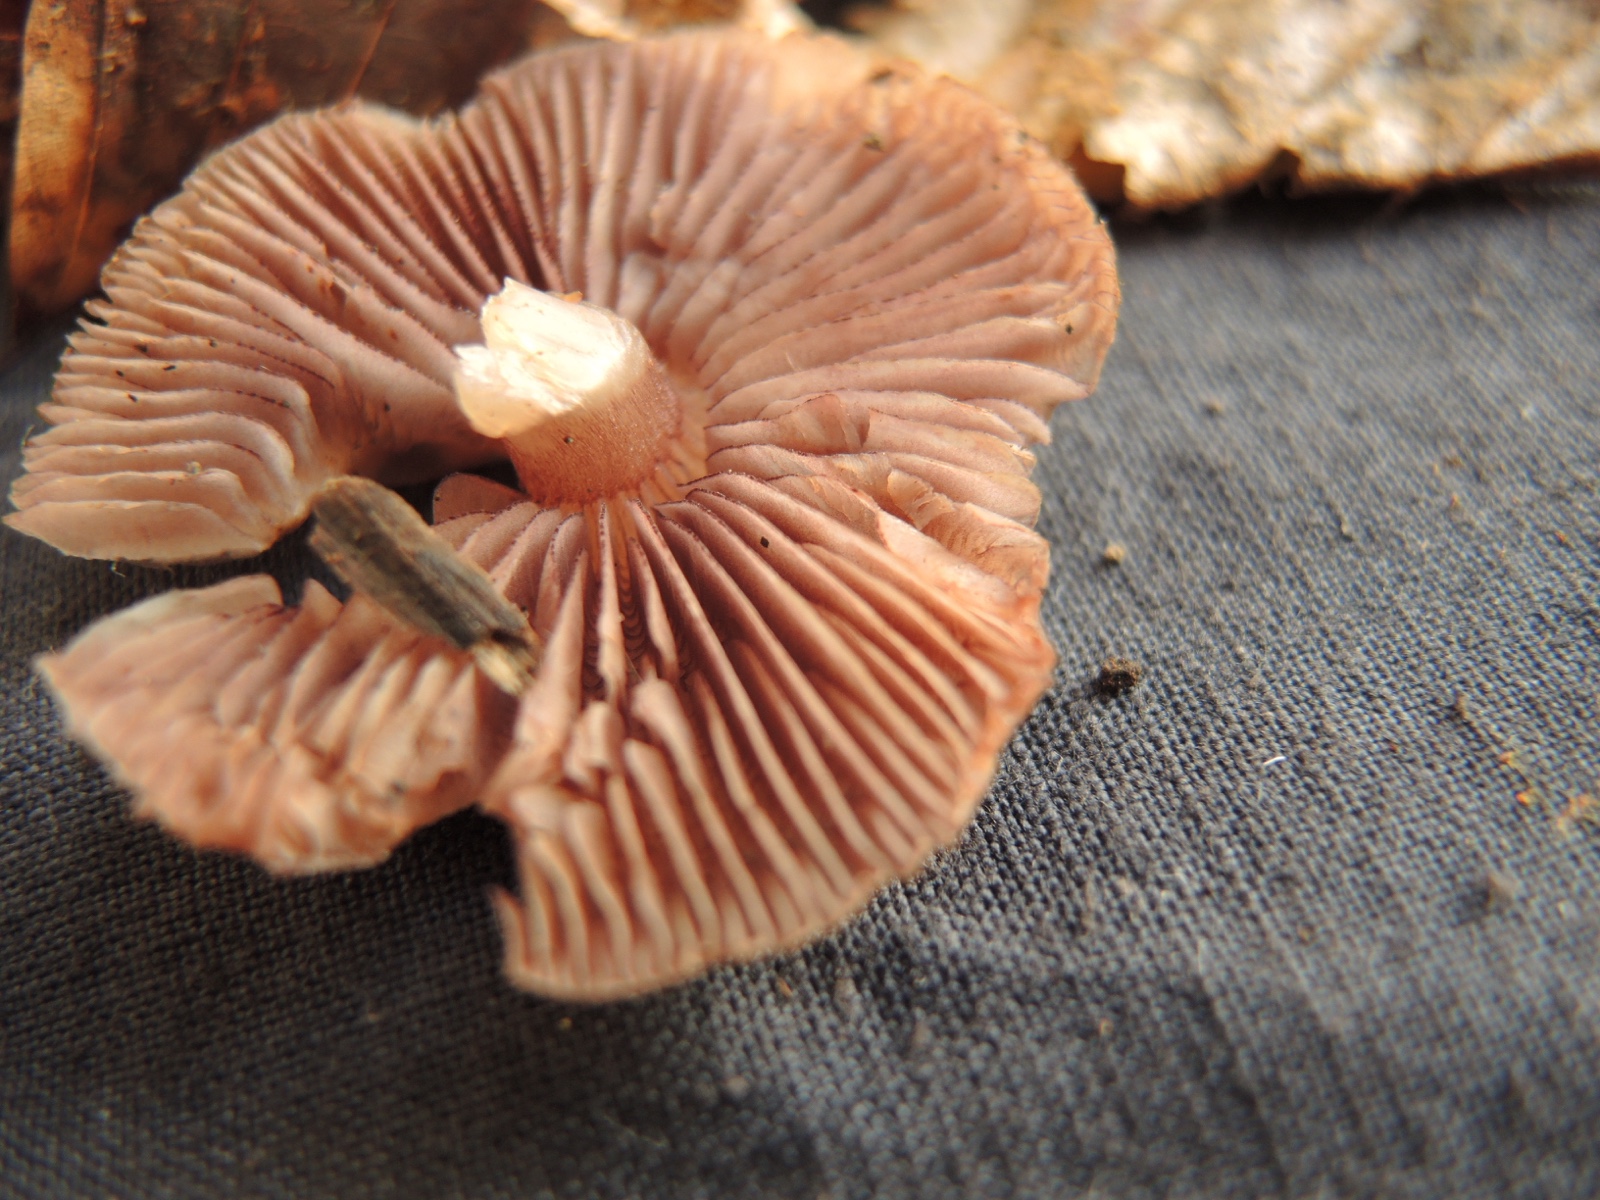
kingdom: Fungi
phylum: Basidiomycota
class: Agaricomycetes
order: Agaricales
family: Mycenaceae
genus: Mycena
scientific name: Mycena pelianthina
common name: mørkbladet huesvamp
